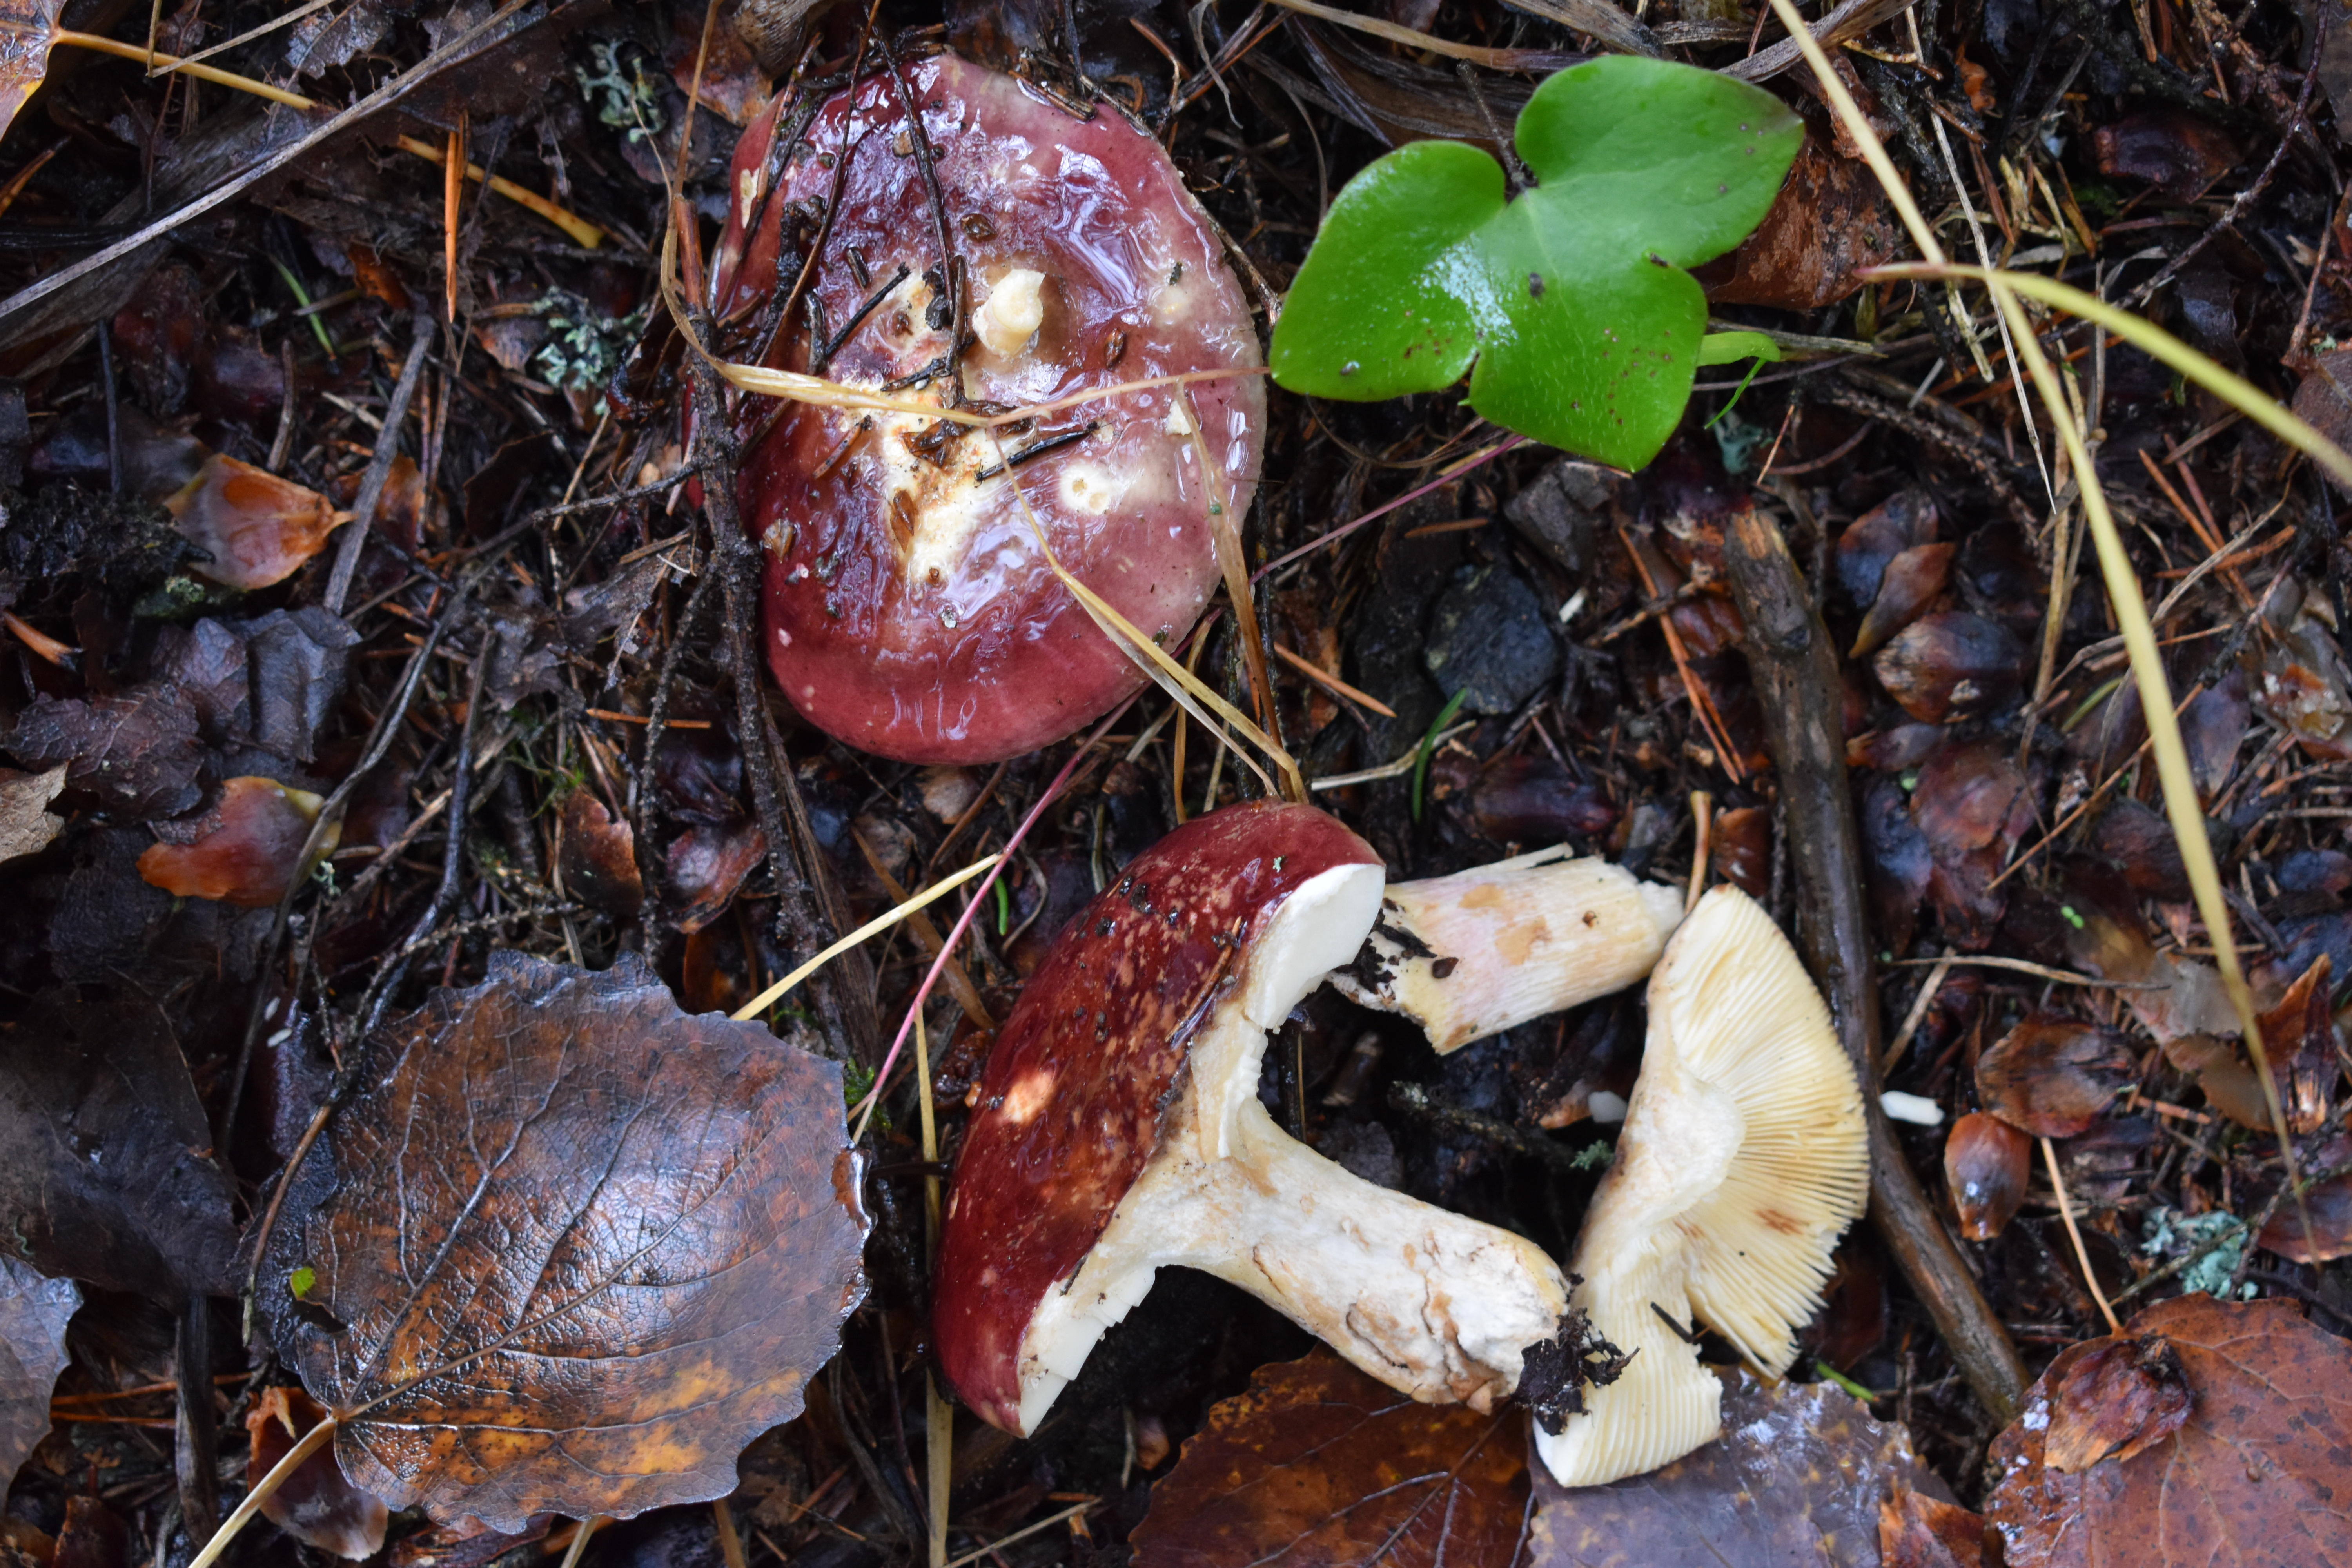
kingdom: Fungi
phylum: Basidiomycota
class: Agaricomycetes
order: Russulales
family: Russulaceae
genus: Russula
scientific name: Russula xerampelina
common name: Crab brittlegill
